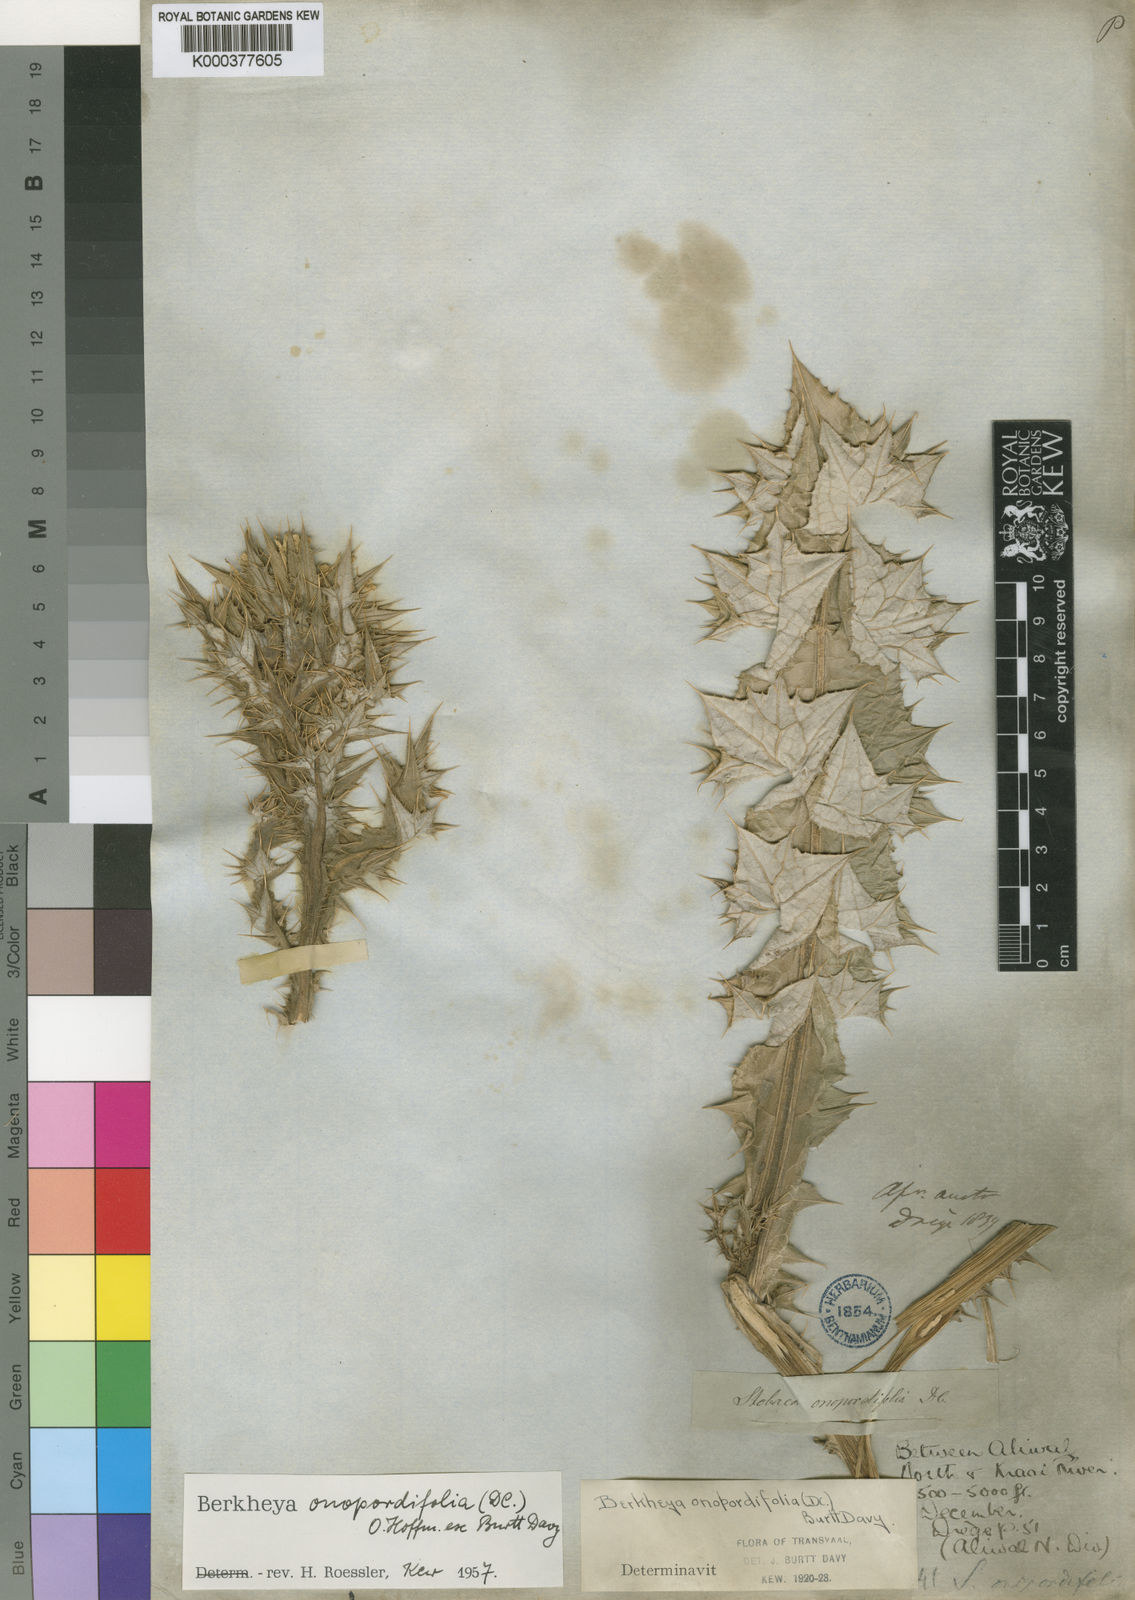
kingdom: Plantae
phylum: Tracheophyta
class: Magnoliopsida
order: Asterales
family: Asteraceae
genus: Berkheya
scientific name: Berkheya onopordifolia
